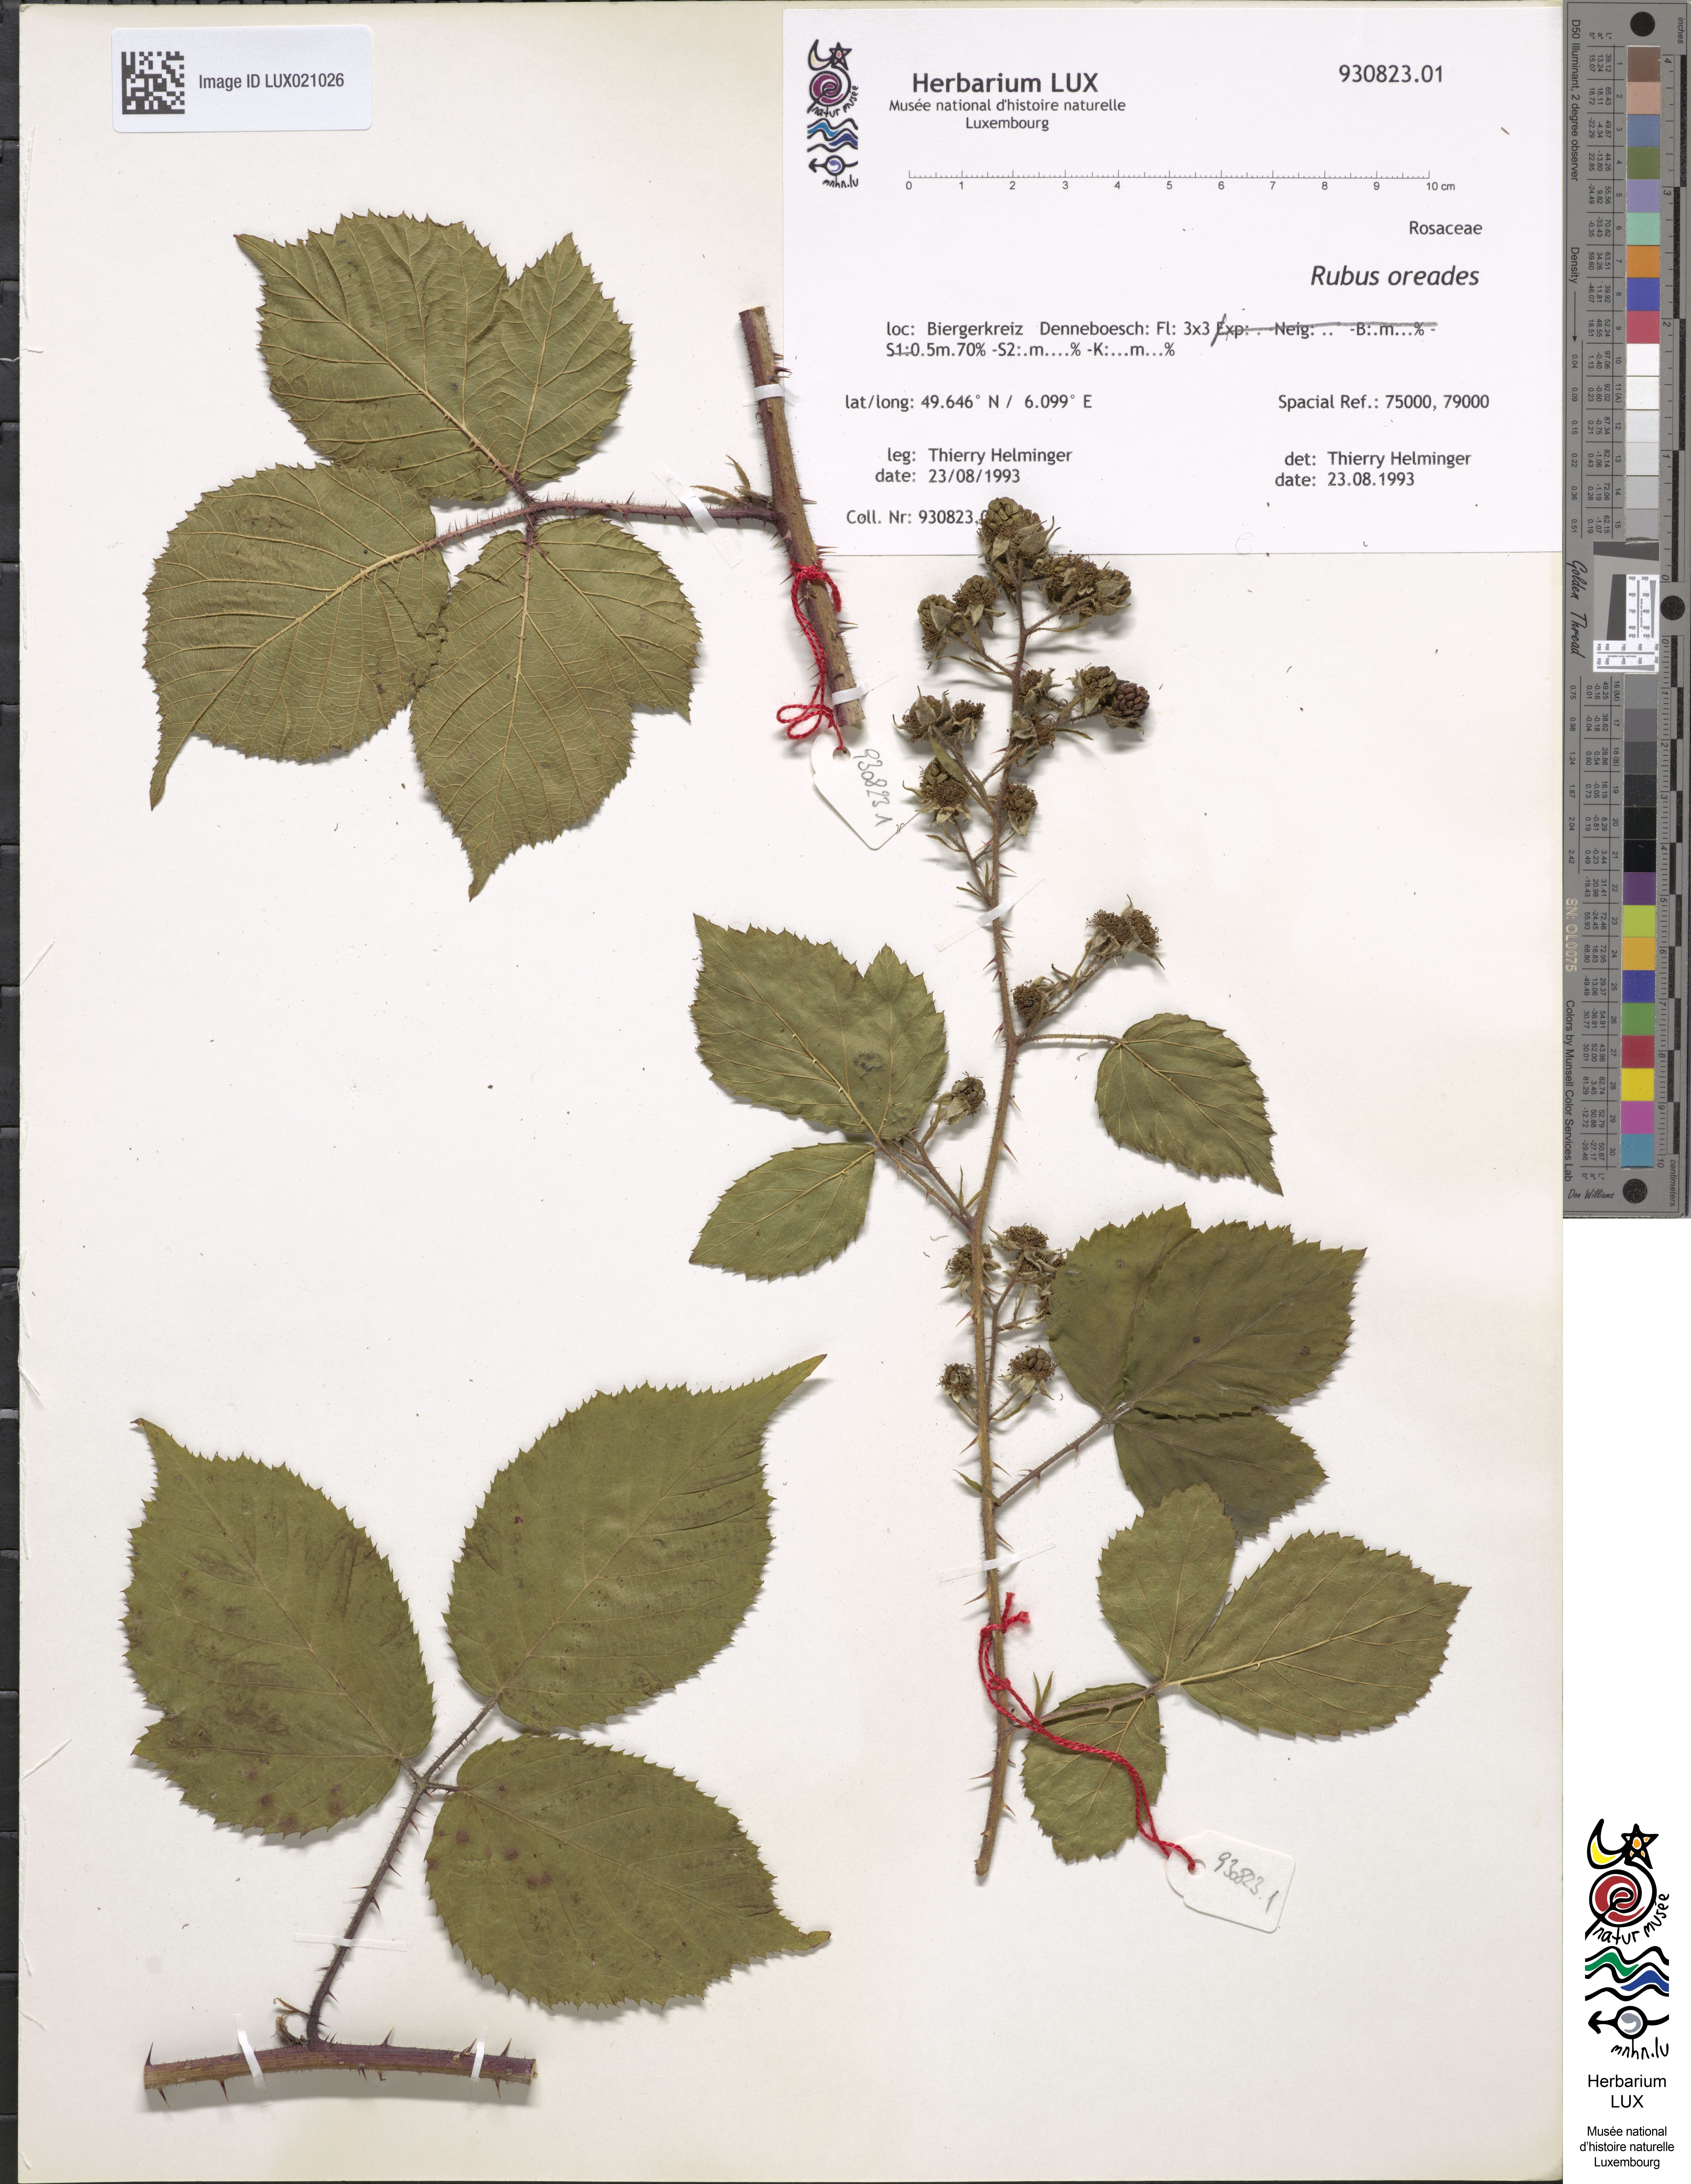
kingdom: Plantae
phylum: Tracheophyta
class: Magnoliopsida
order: Rosales
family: Rosaceae
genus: Rubus
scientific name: Rubus oreades
